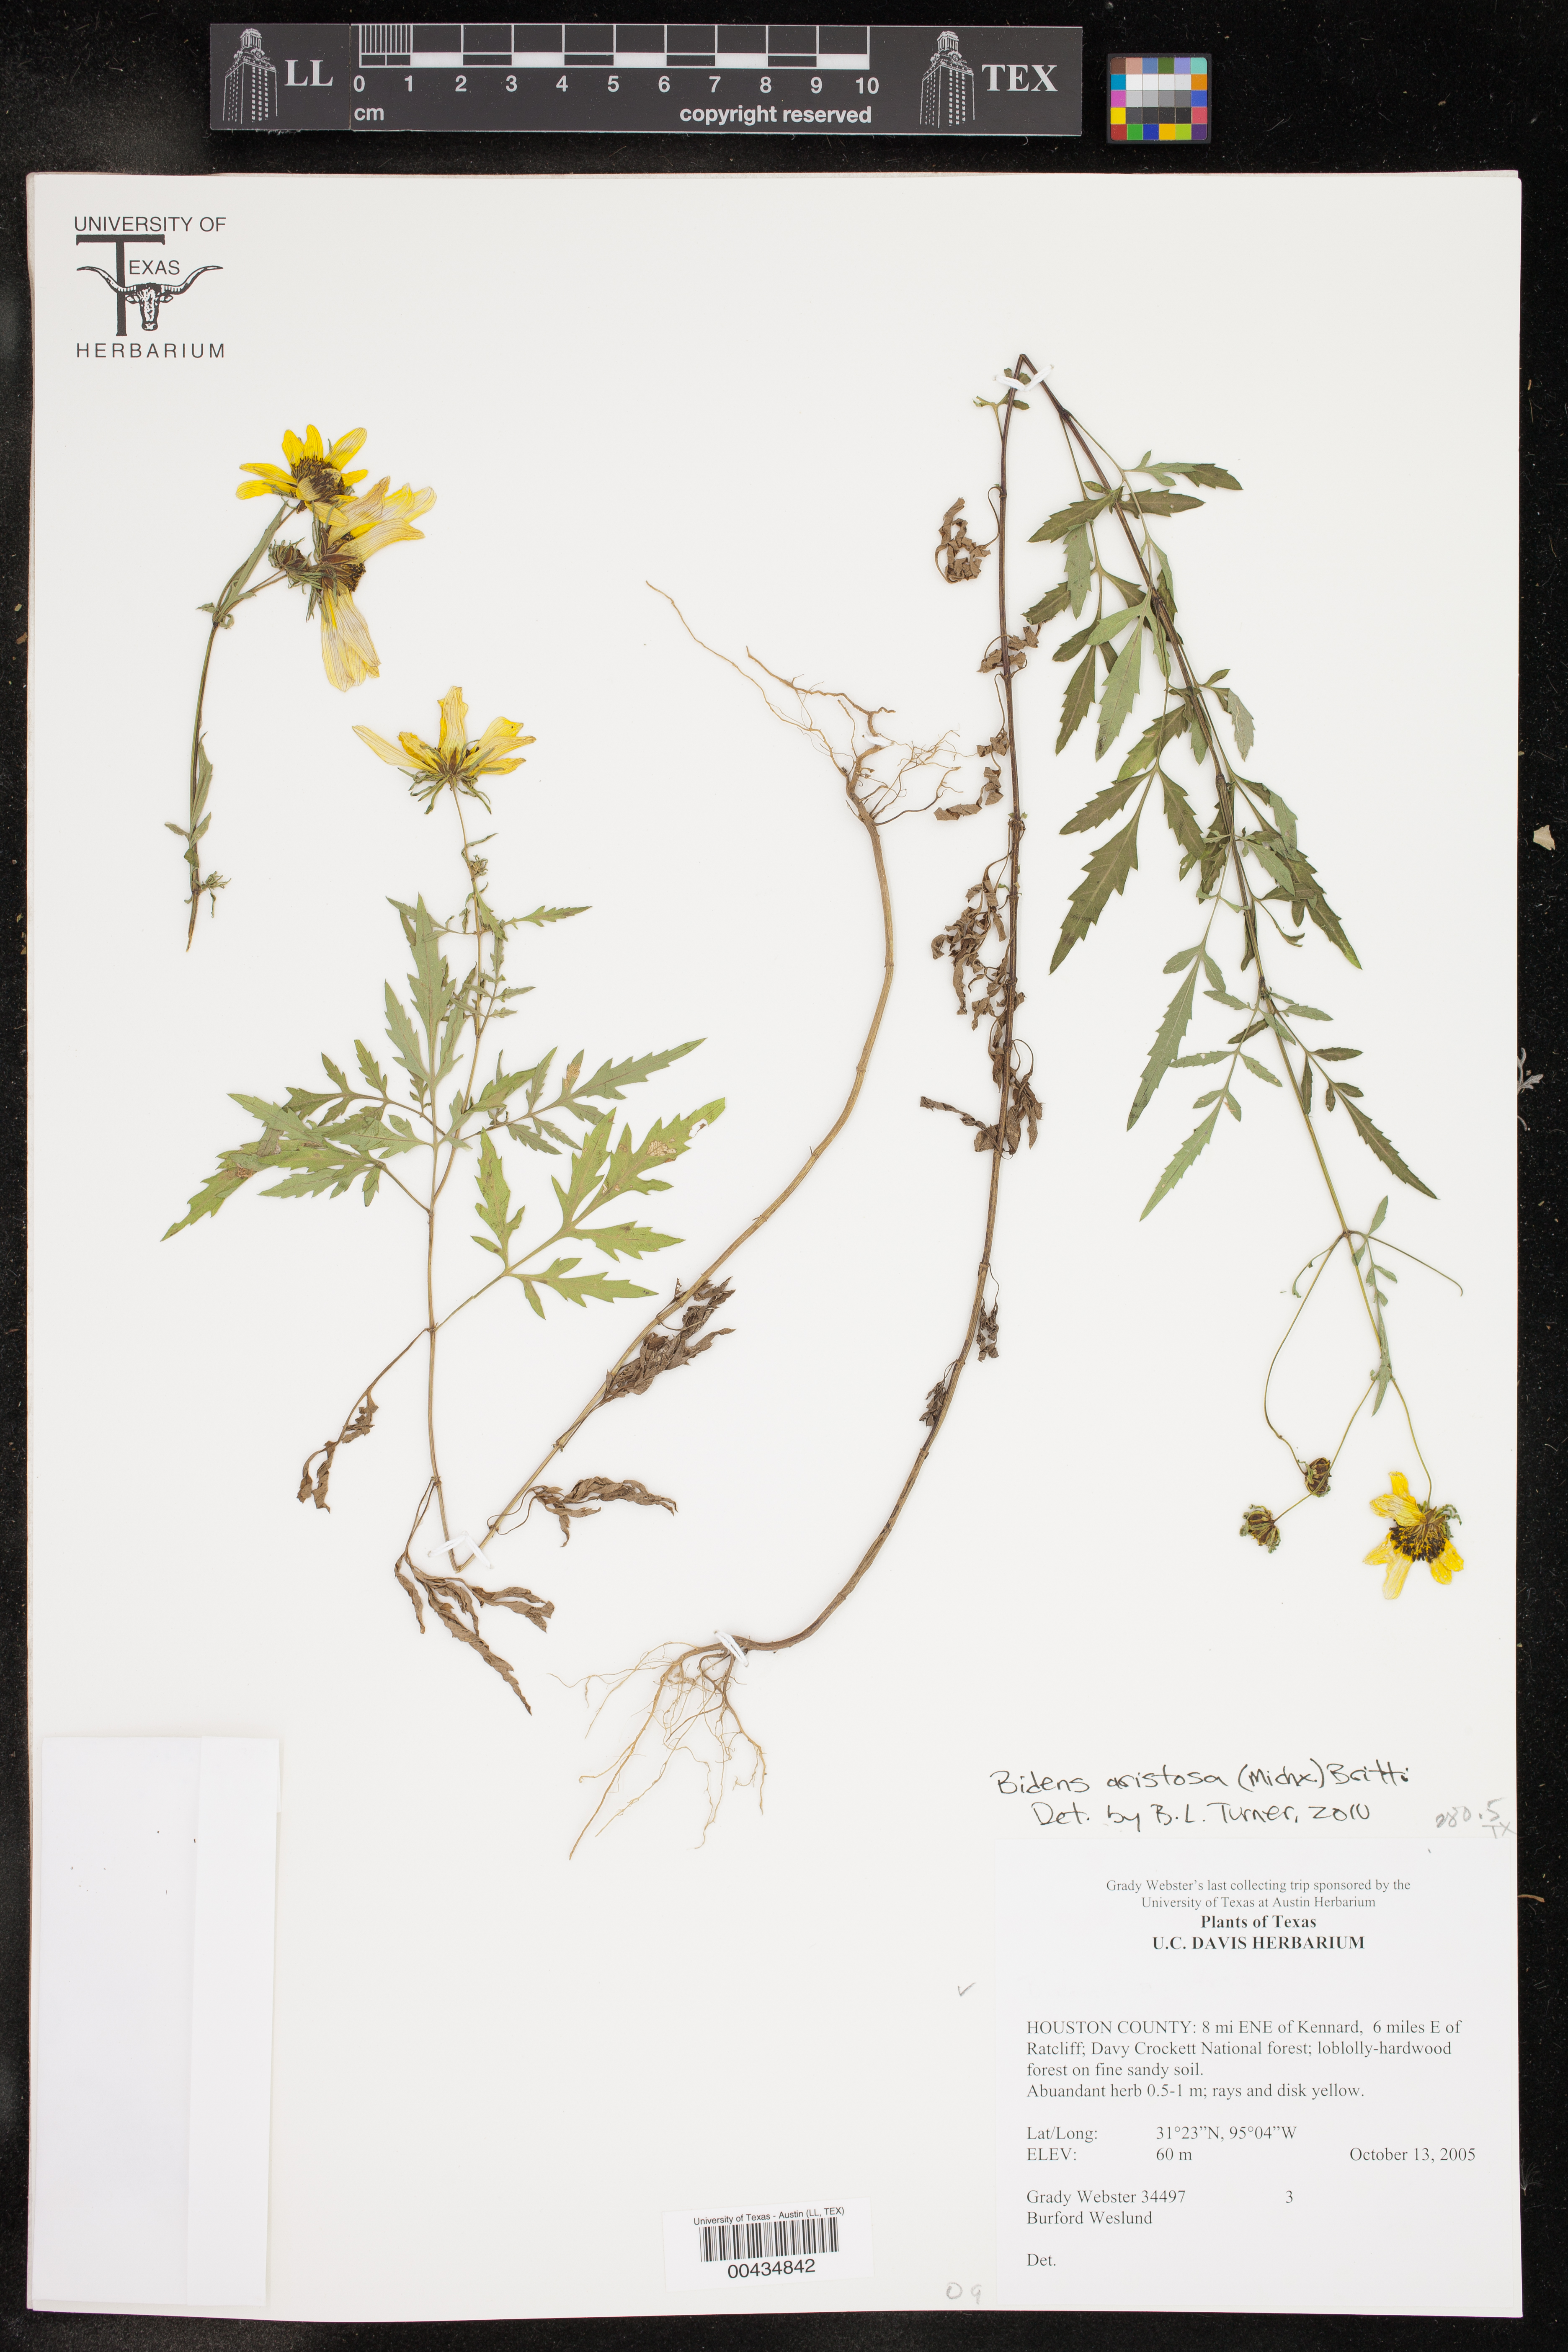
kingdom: Plantae
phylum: Tracheophyta
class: Magnoliopsida
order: Asterales
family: Asteraceae
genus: Bidens
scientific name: Bidens aristosa
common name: Western tickseed
